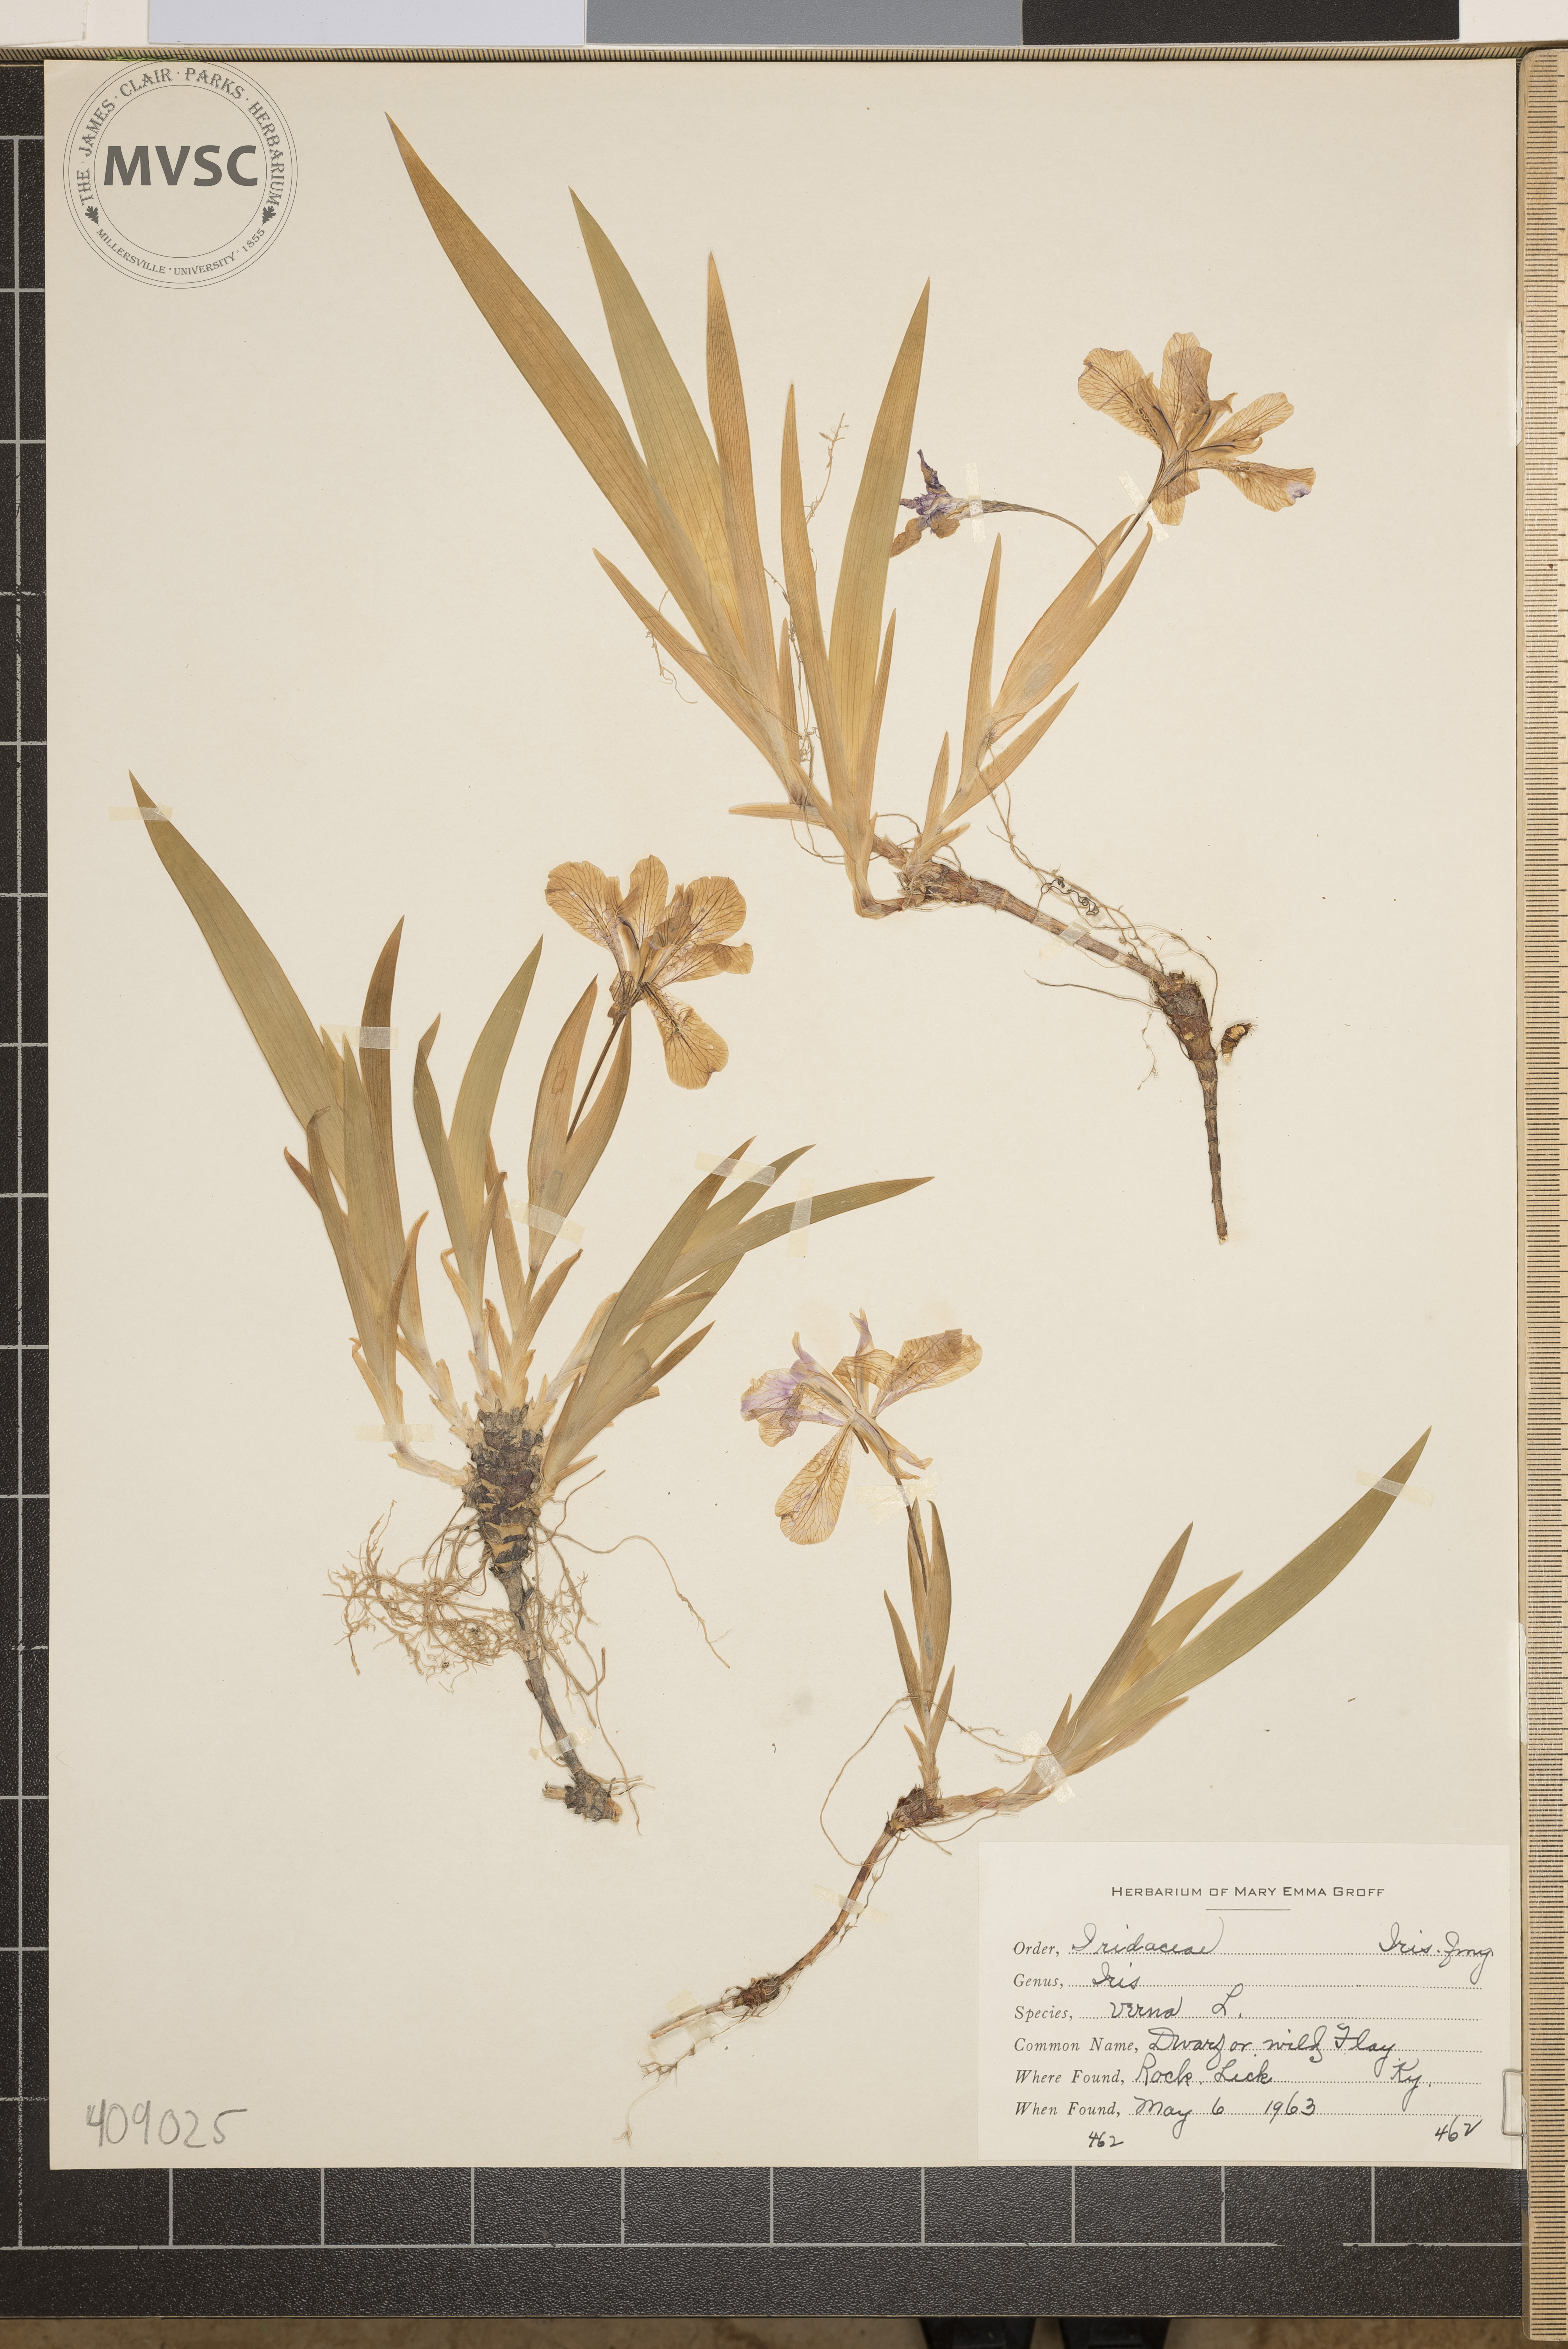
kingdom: Plantae
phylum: Tracheophyta
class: Liliopsida
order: Asparagales
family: Iridaceae
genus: Iris
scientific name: Iris verna
